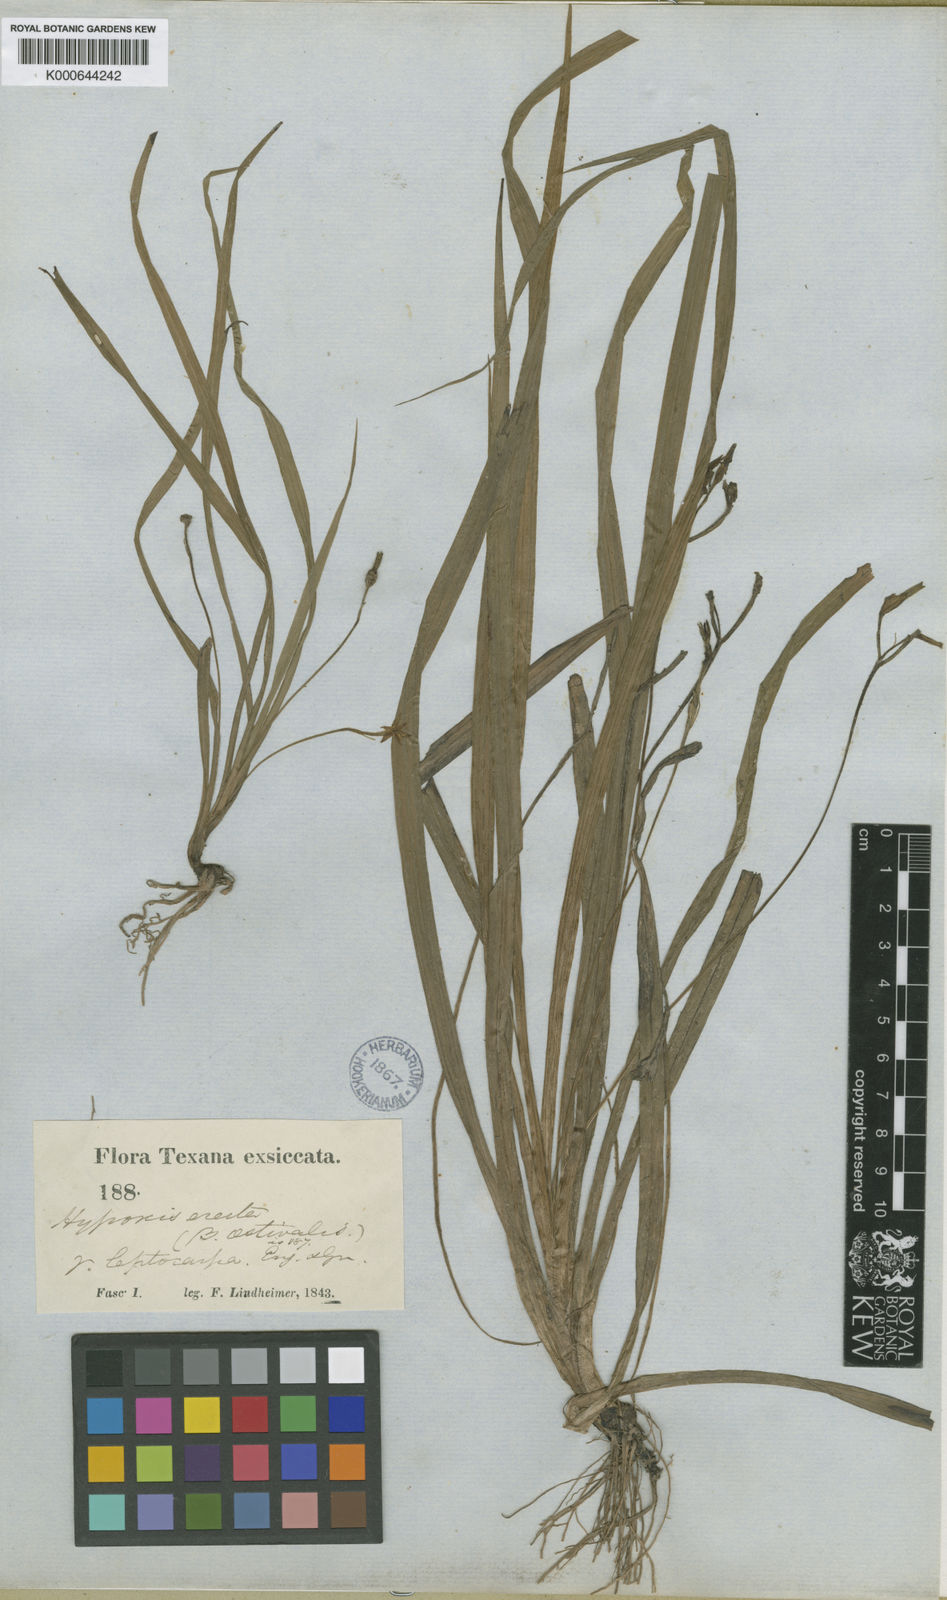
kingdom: Plantae
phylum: Tracheophyta
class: Liliopsida
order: Asparagales
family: Hypoxidaceae
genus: Hypoxis
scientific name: Hypoxis curtissii
